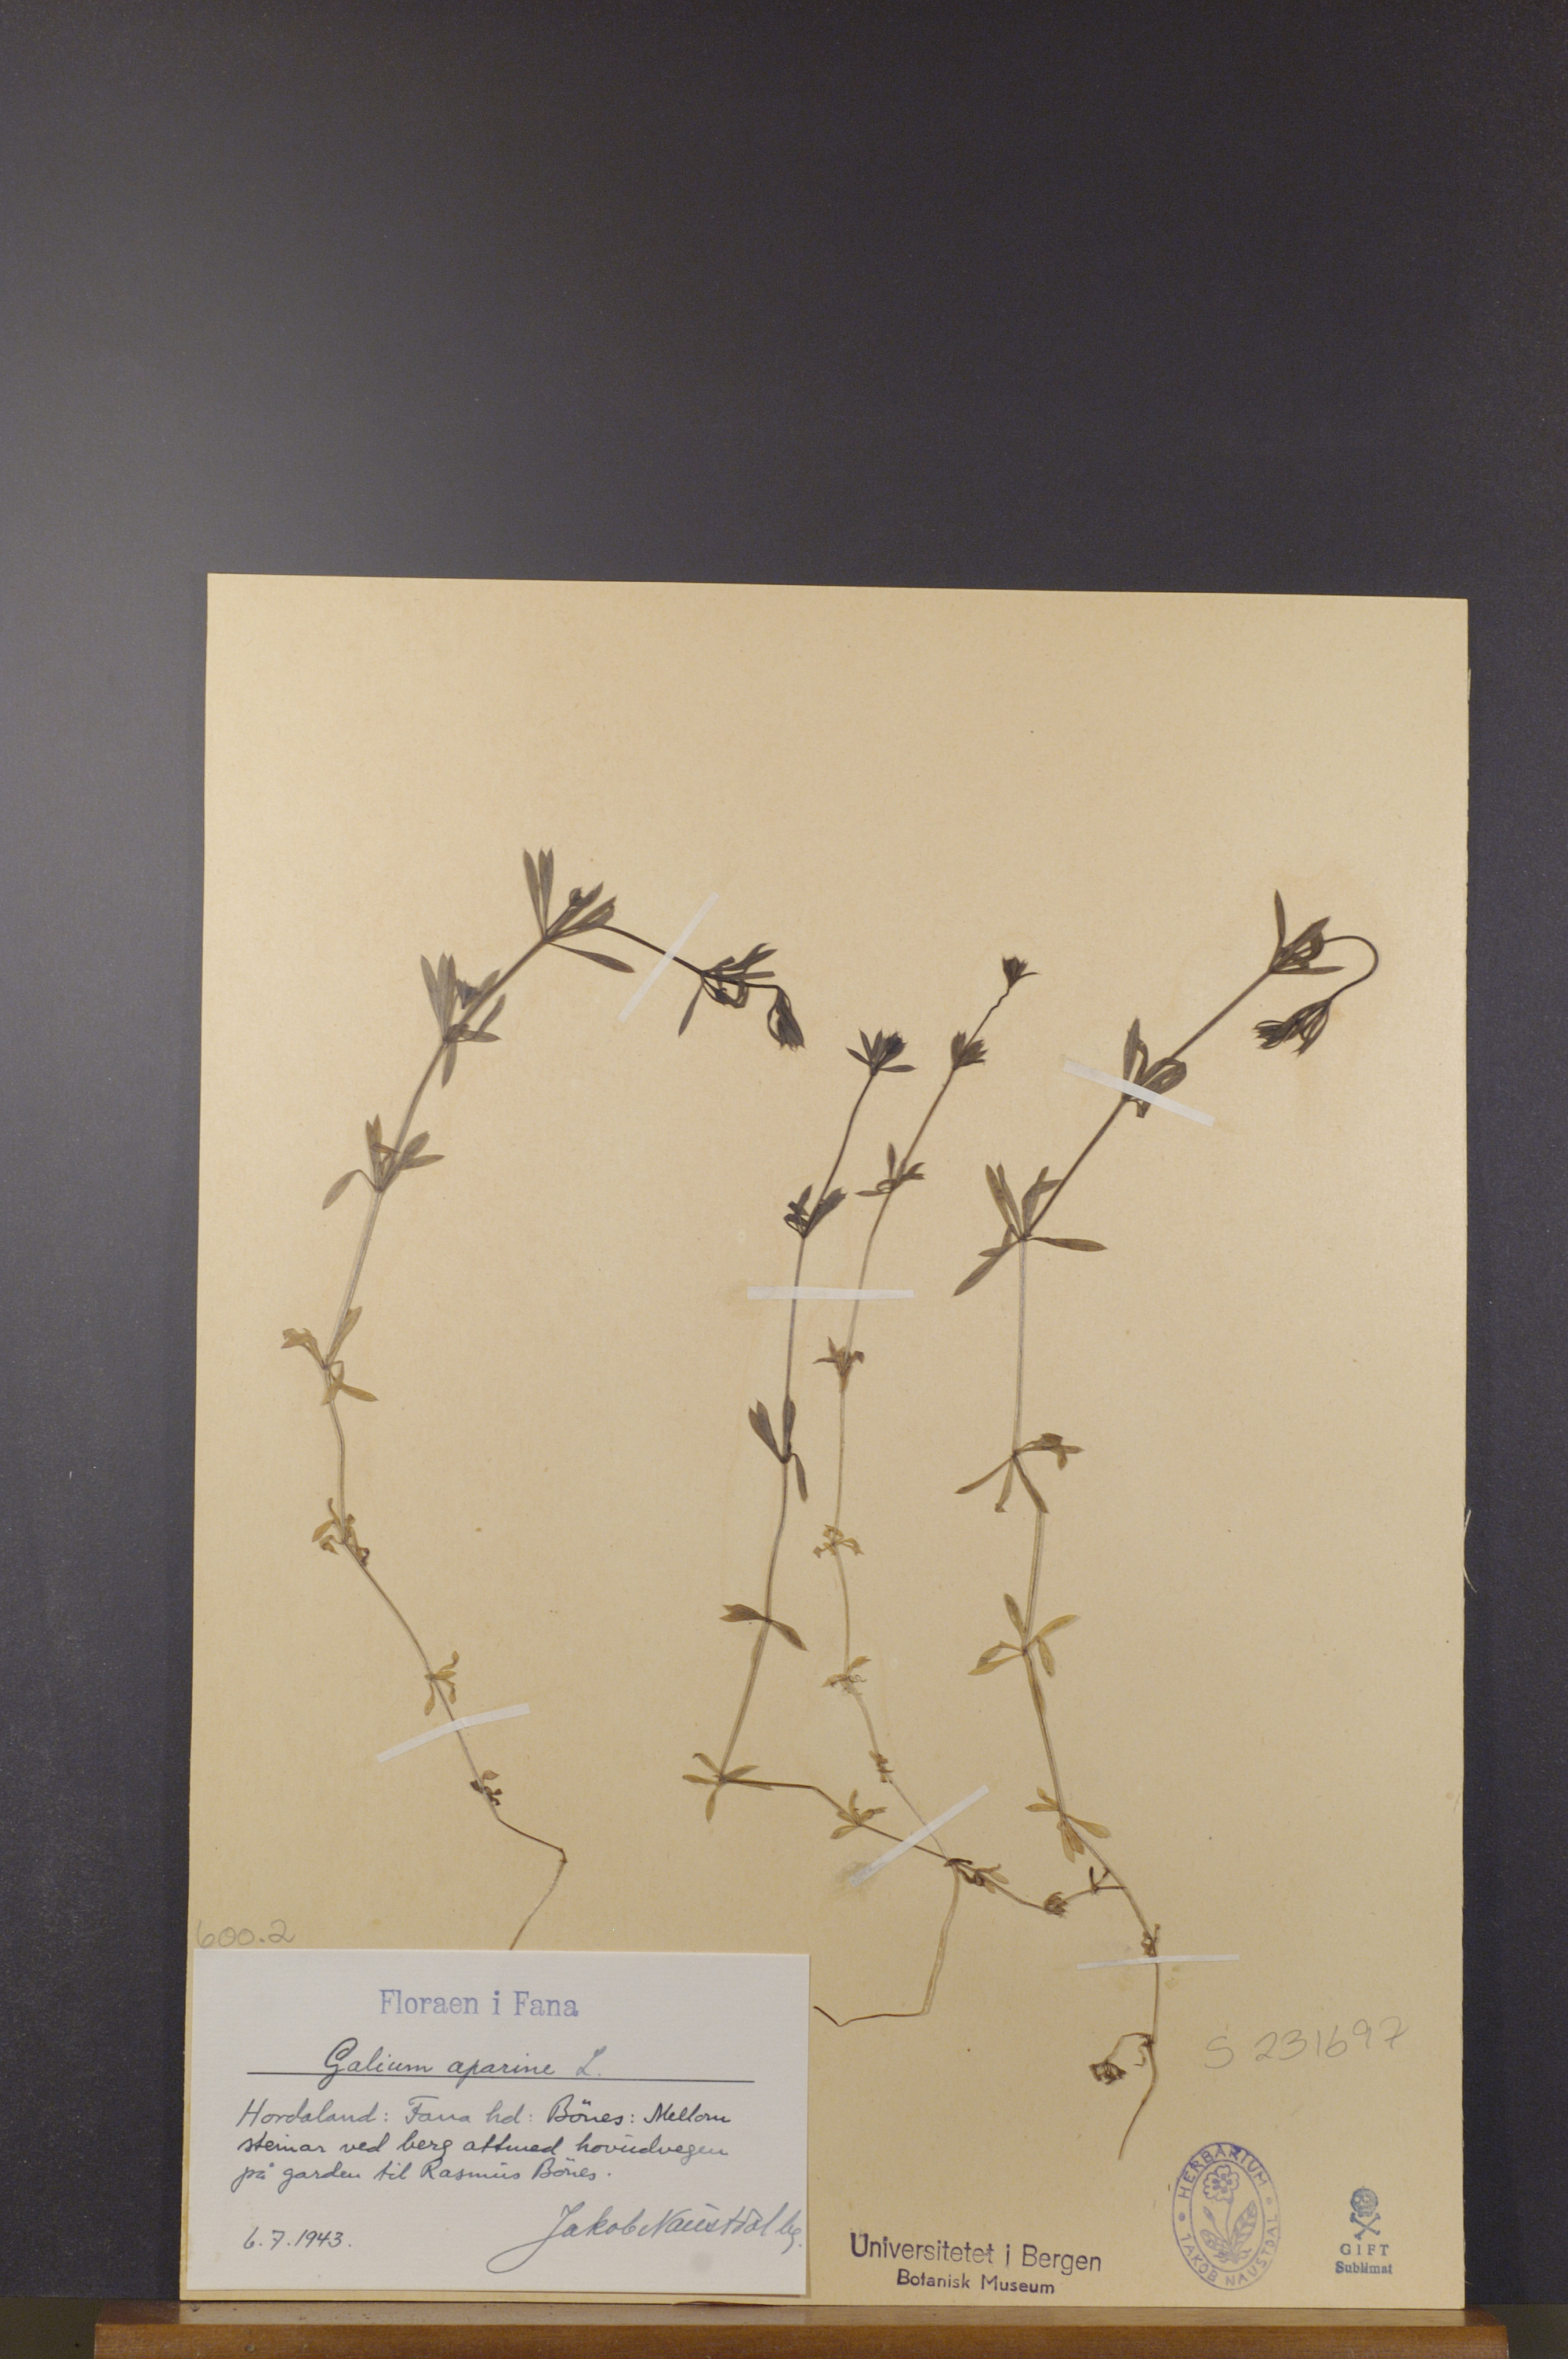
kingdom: Plantae
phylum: Tracheophyta
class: Magnoliopsida
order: Gentianales
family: Rubiaceae
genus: Galium
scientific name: Galium aparine
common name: Cleavers
